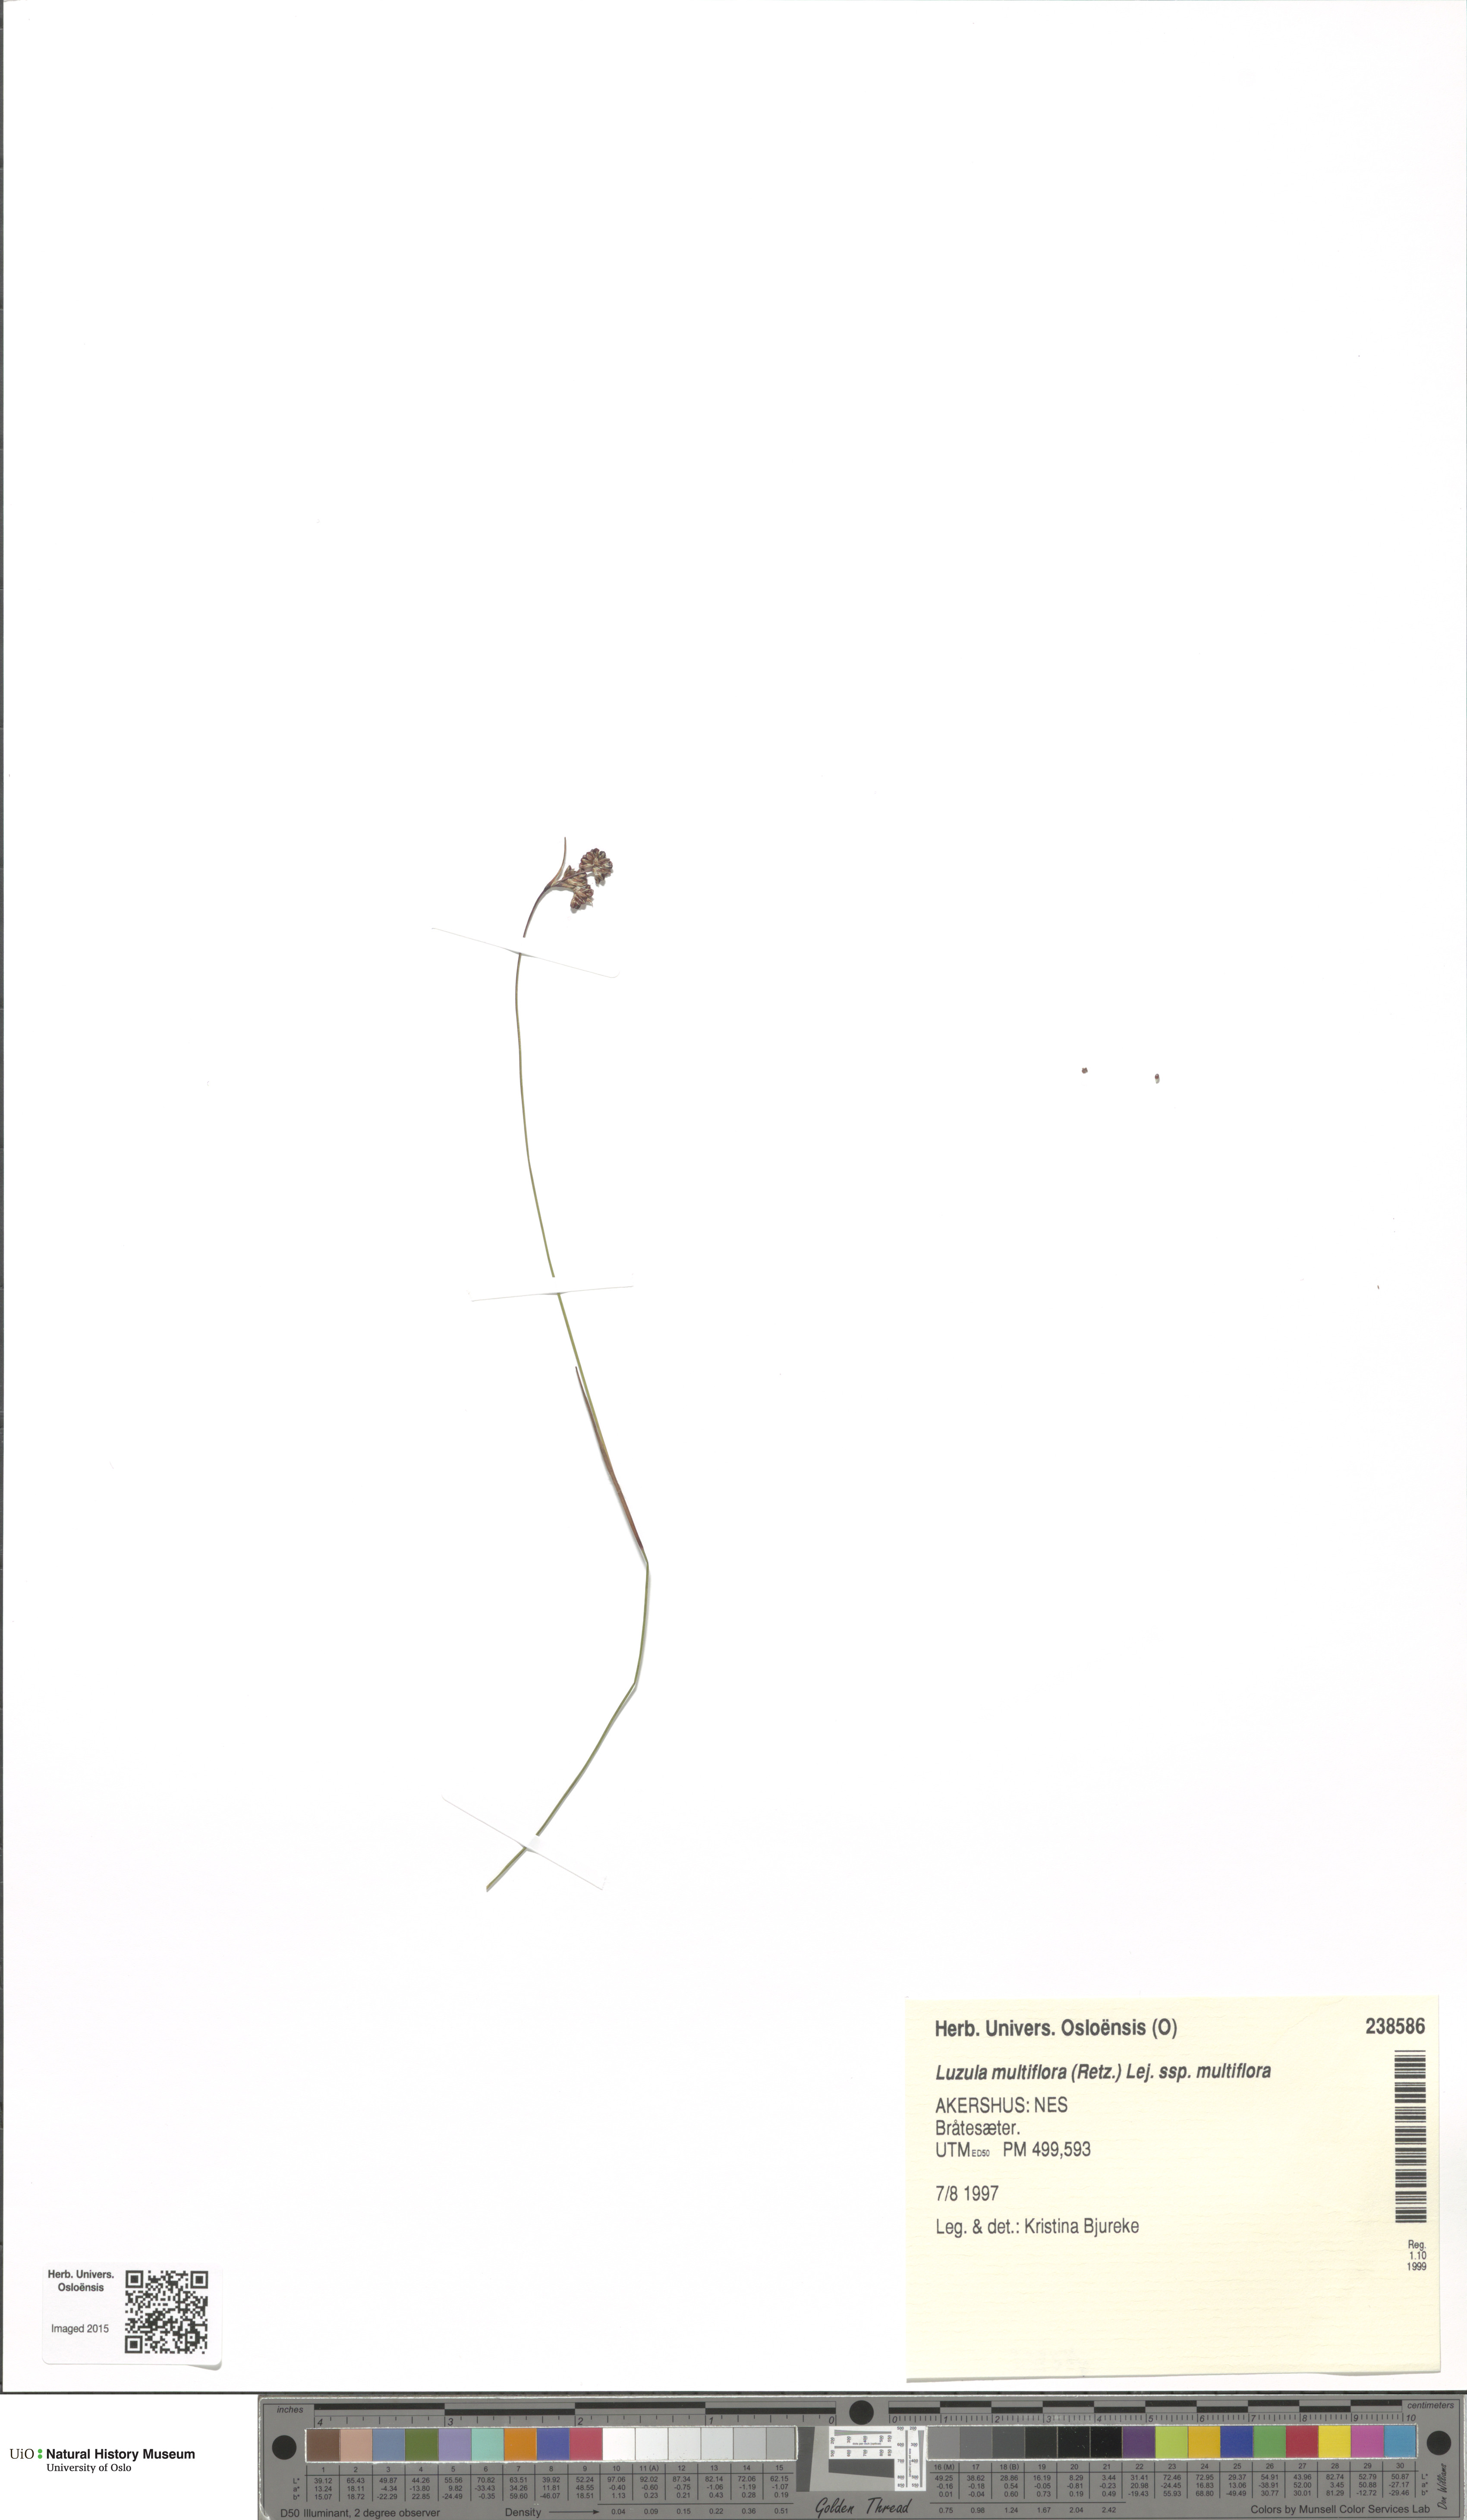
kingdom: Plantae
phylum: Tracheophyta
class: Liliopsida
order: Poales
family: Juncaceae
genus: Luzula
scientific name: Luzula multiflora
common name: Heath wood-rush
